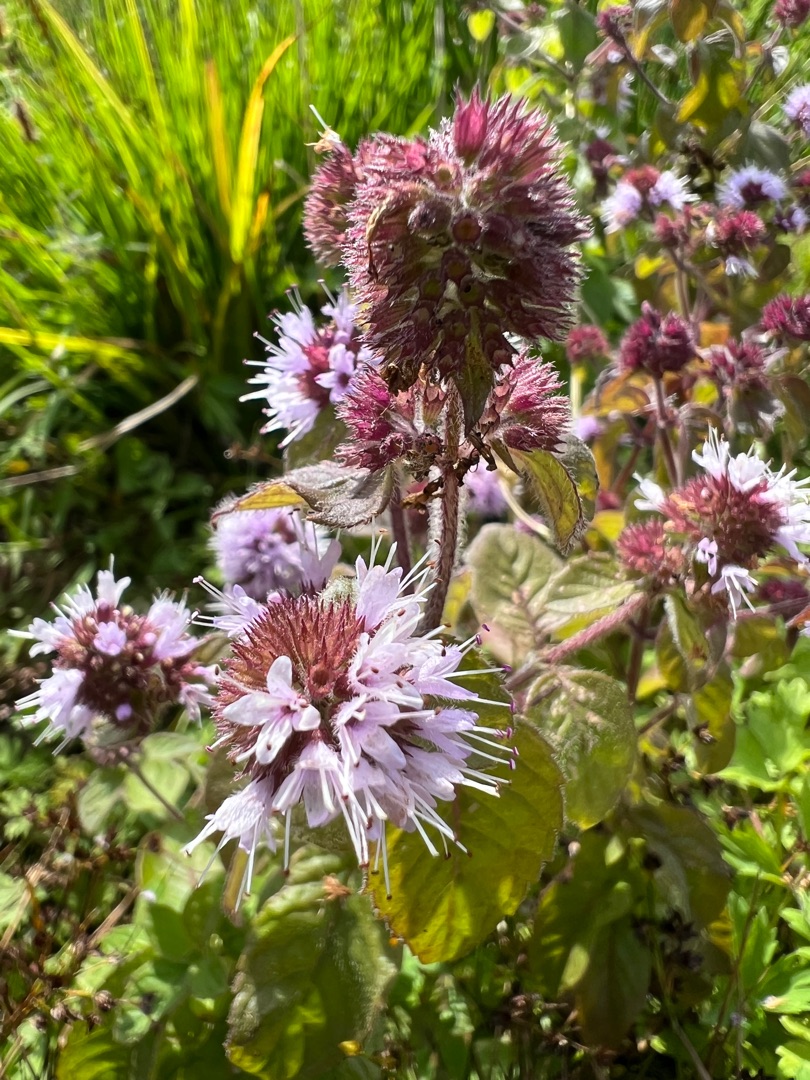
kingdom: Plantae
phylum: Tracheophyta
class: Magnoliopsida
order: Lamiales
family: Lamiaceae
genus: Mentha
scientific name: Mentha aquatica
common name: Vand-mynte
